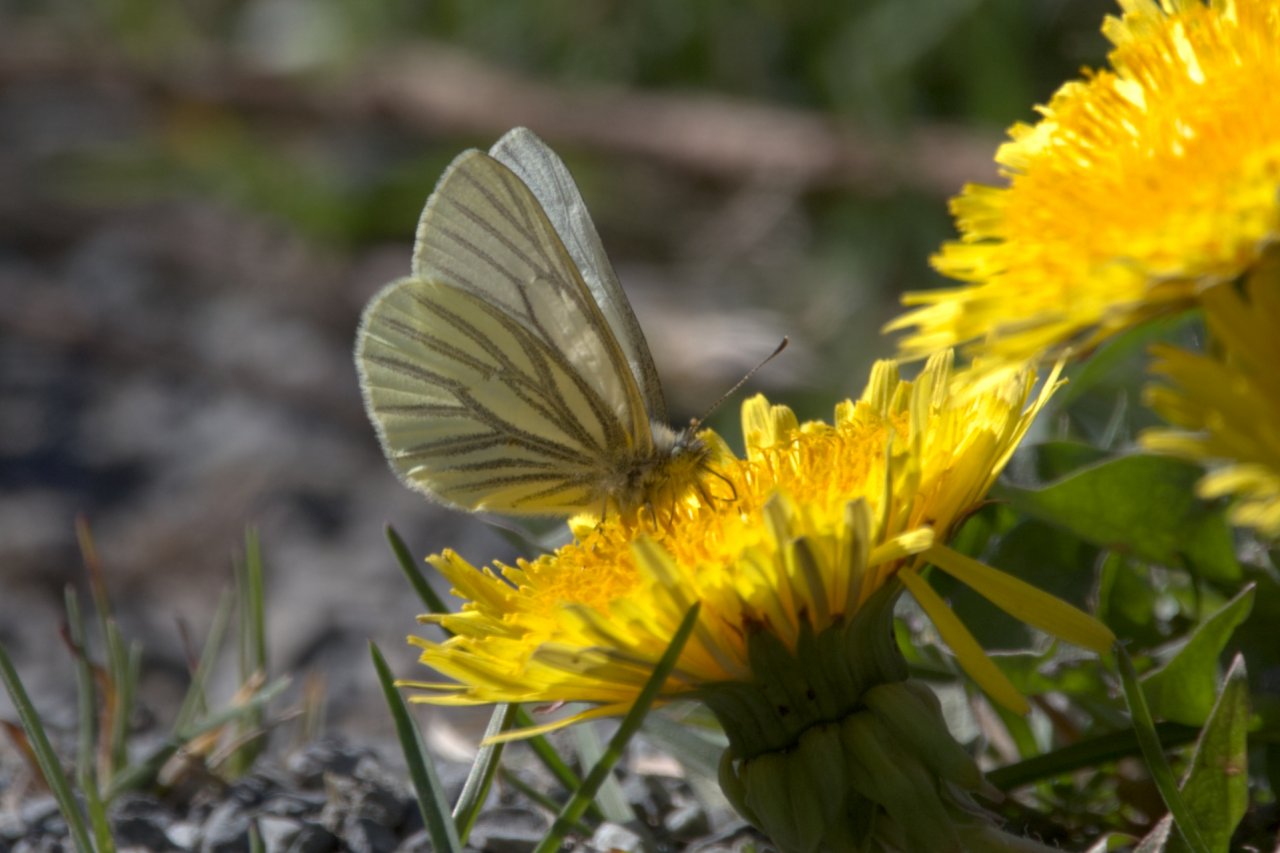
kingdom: Animalia
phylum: Arthropoda
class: Insecta
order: Lepidoptera
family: Pieridae
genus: Pieris
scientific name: Pieris marginalis
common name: Margined White
